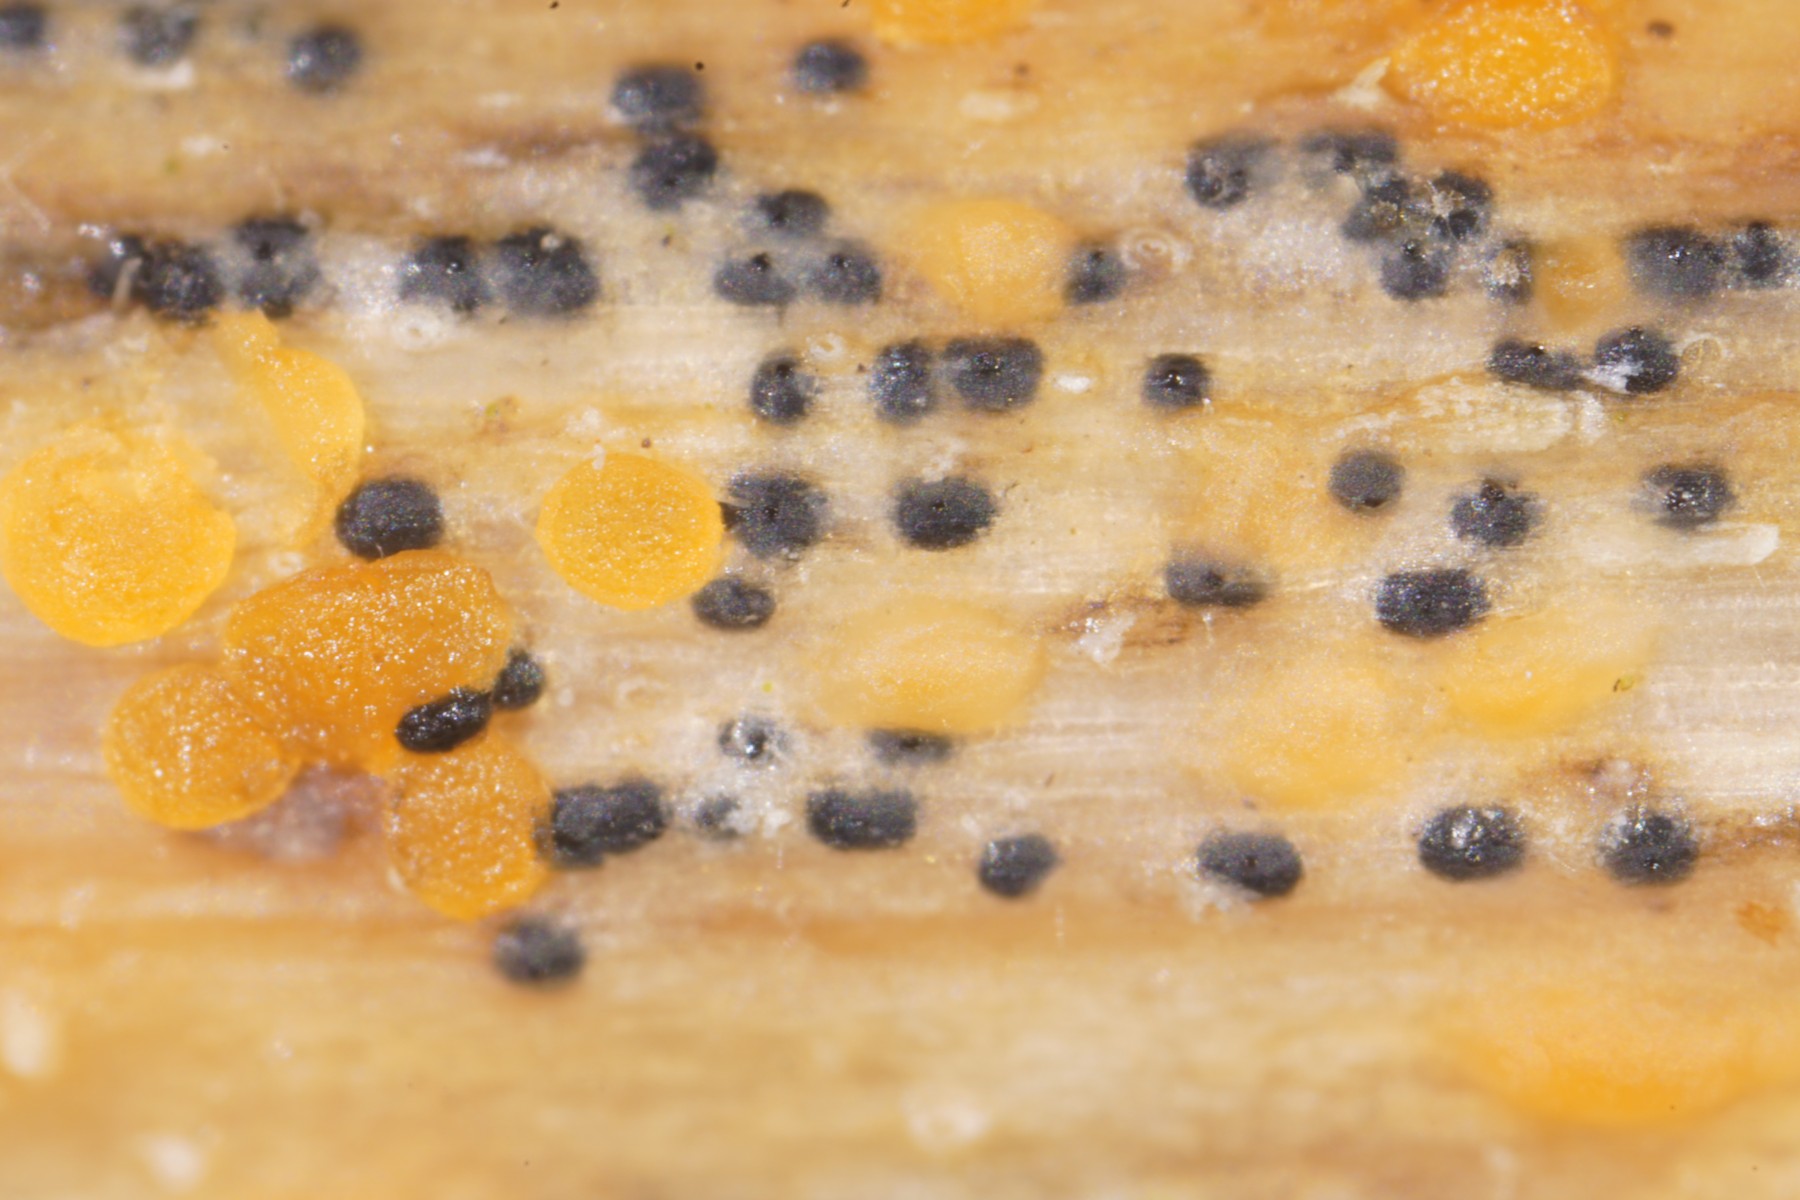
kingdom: Fungi
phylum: Ascomycota
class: Dothideomycetes
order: Pleosporales
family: Leptosphaeriaceae
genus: Leptosphaeria
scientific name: Leptosphaeria acuta
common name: spids kulkegle
